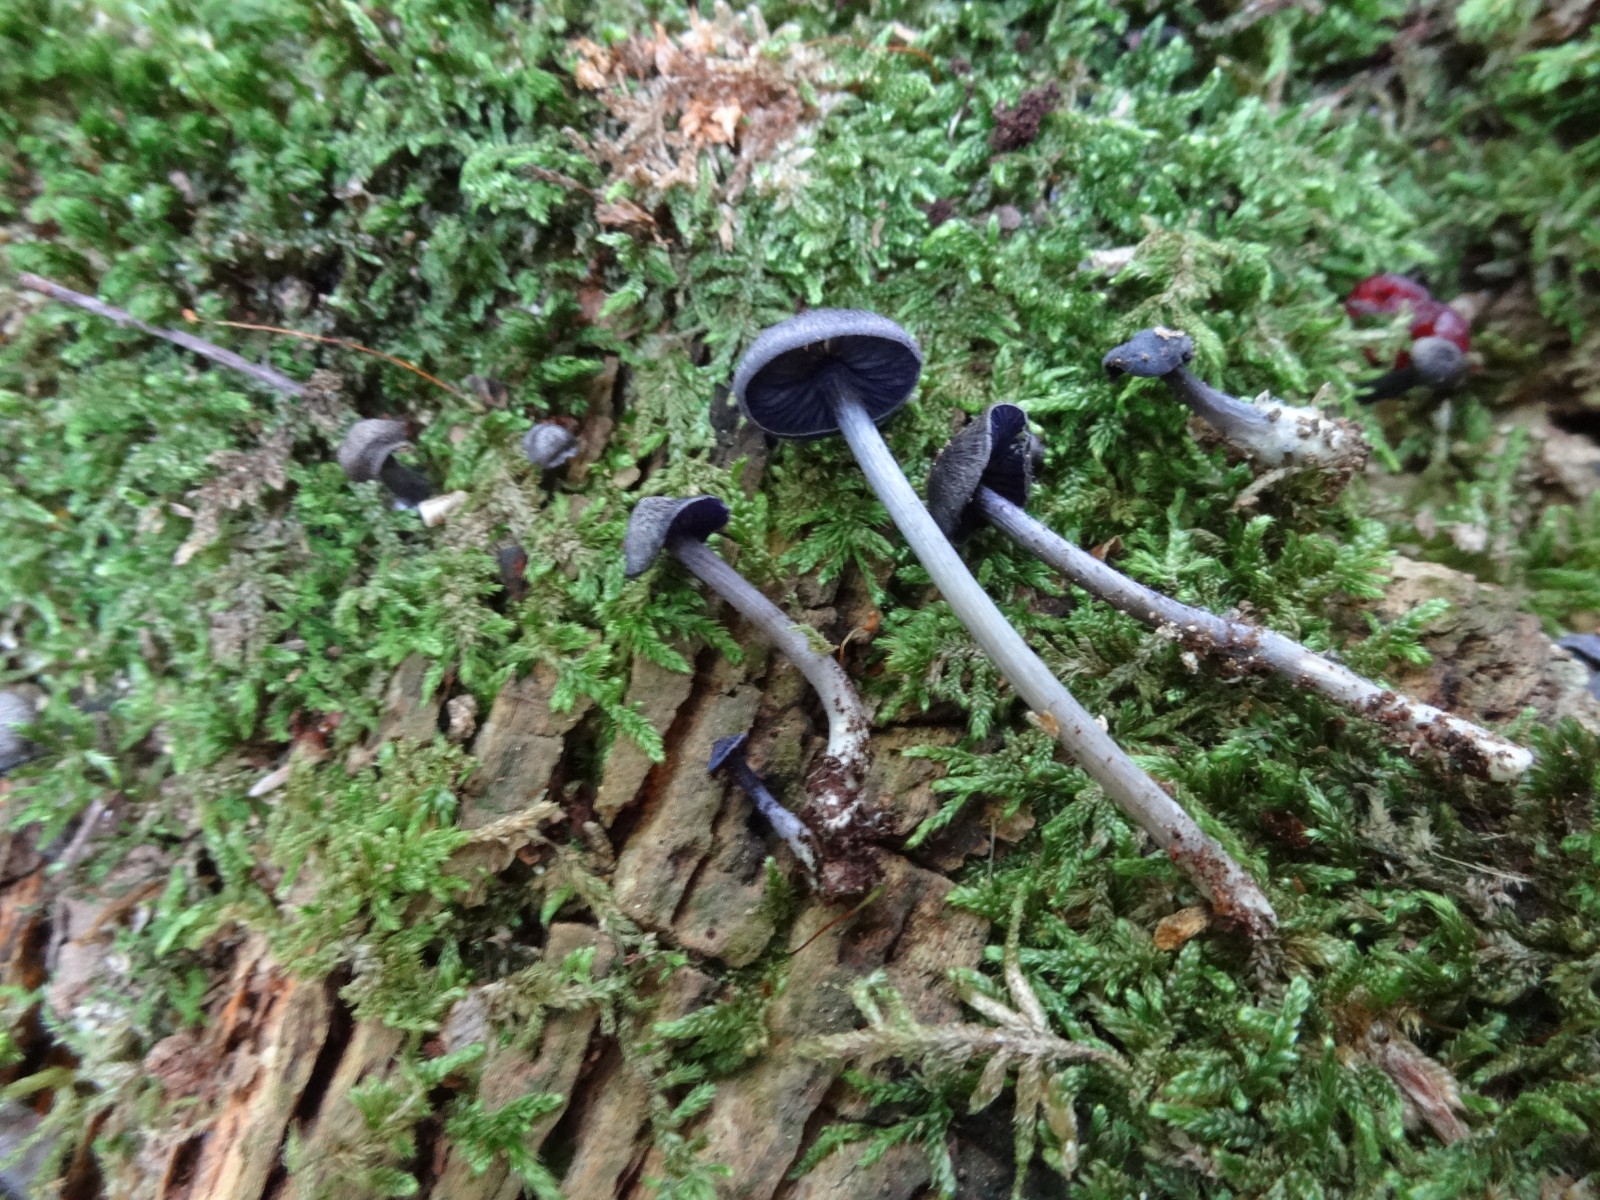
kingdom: Fungi
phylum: Basidiomycota
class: Agaricomycetes
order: Agaricales
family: Entolomataceae
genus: Entoloma
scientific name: Entoloma euchroum
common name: smuk rødblad
